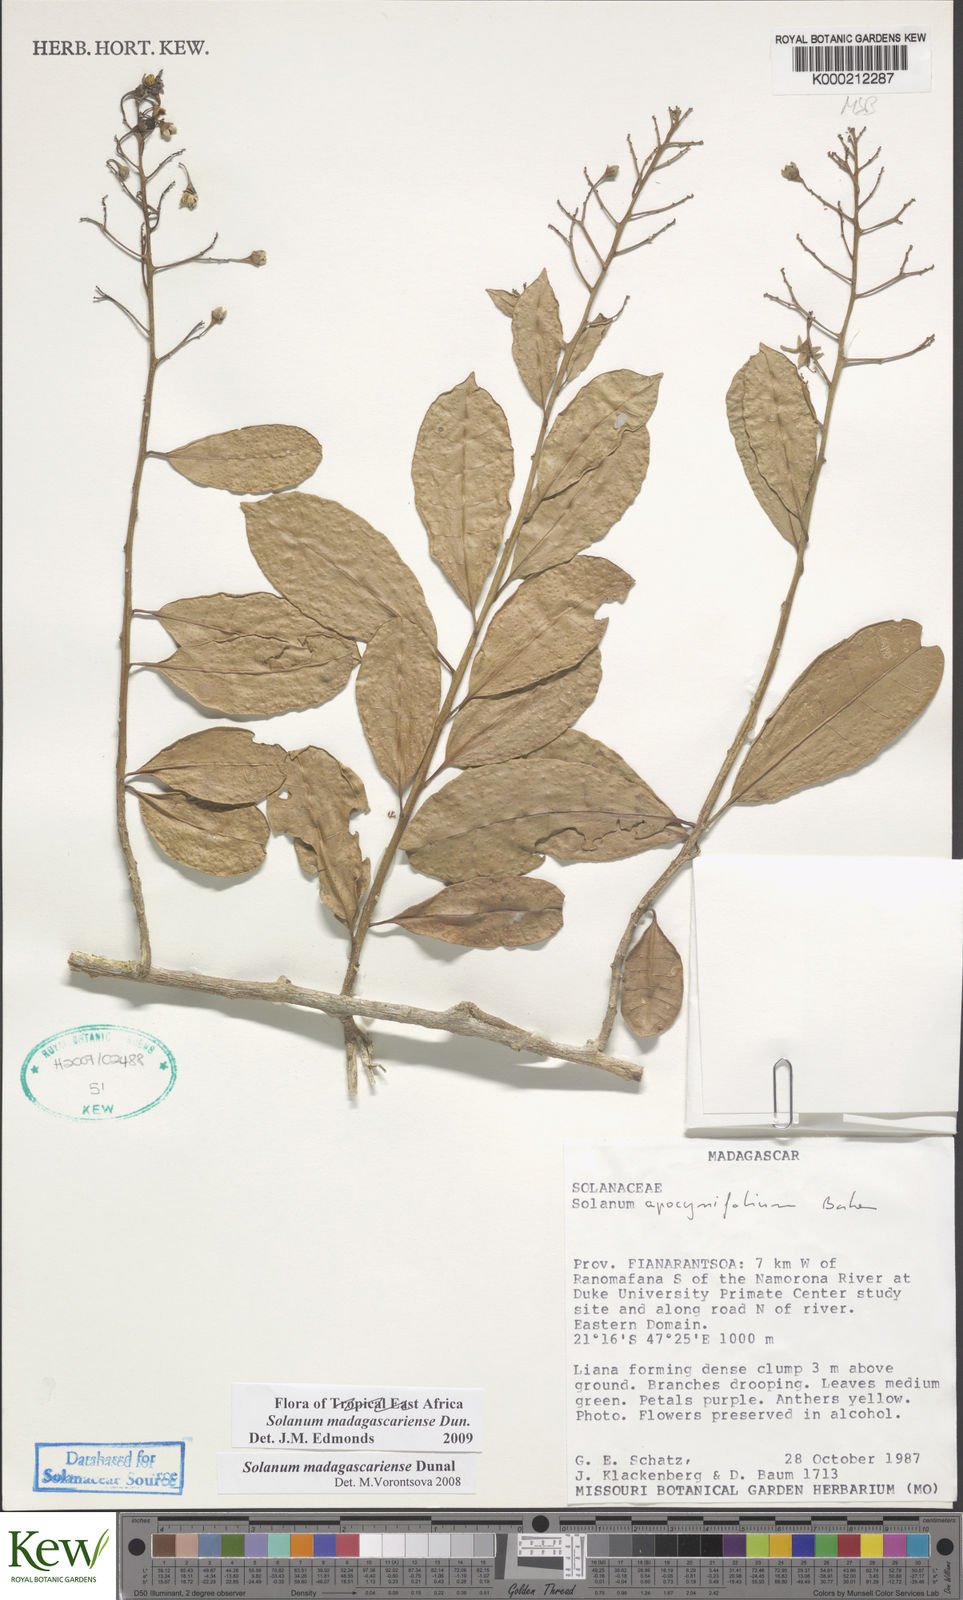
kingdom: Plantae
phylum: Tracheophyta
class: Magnoliopsida
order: Solanales
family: Solanaceae
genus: Solanum
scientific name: Solanum madagascariense
